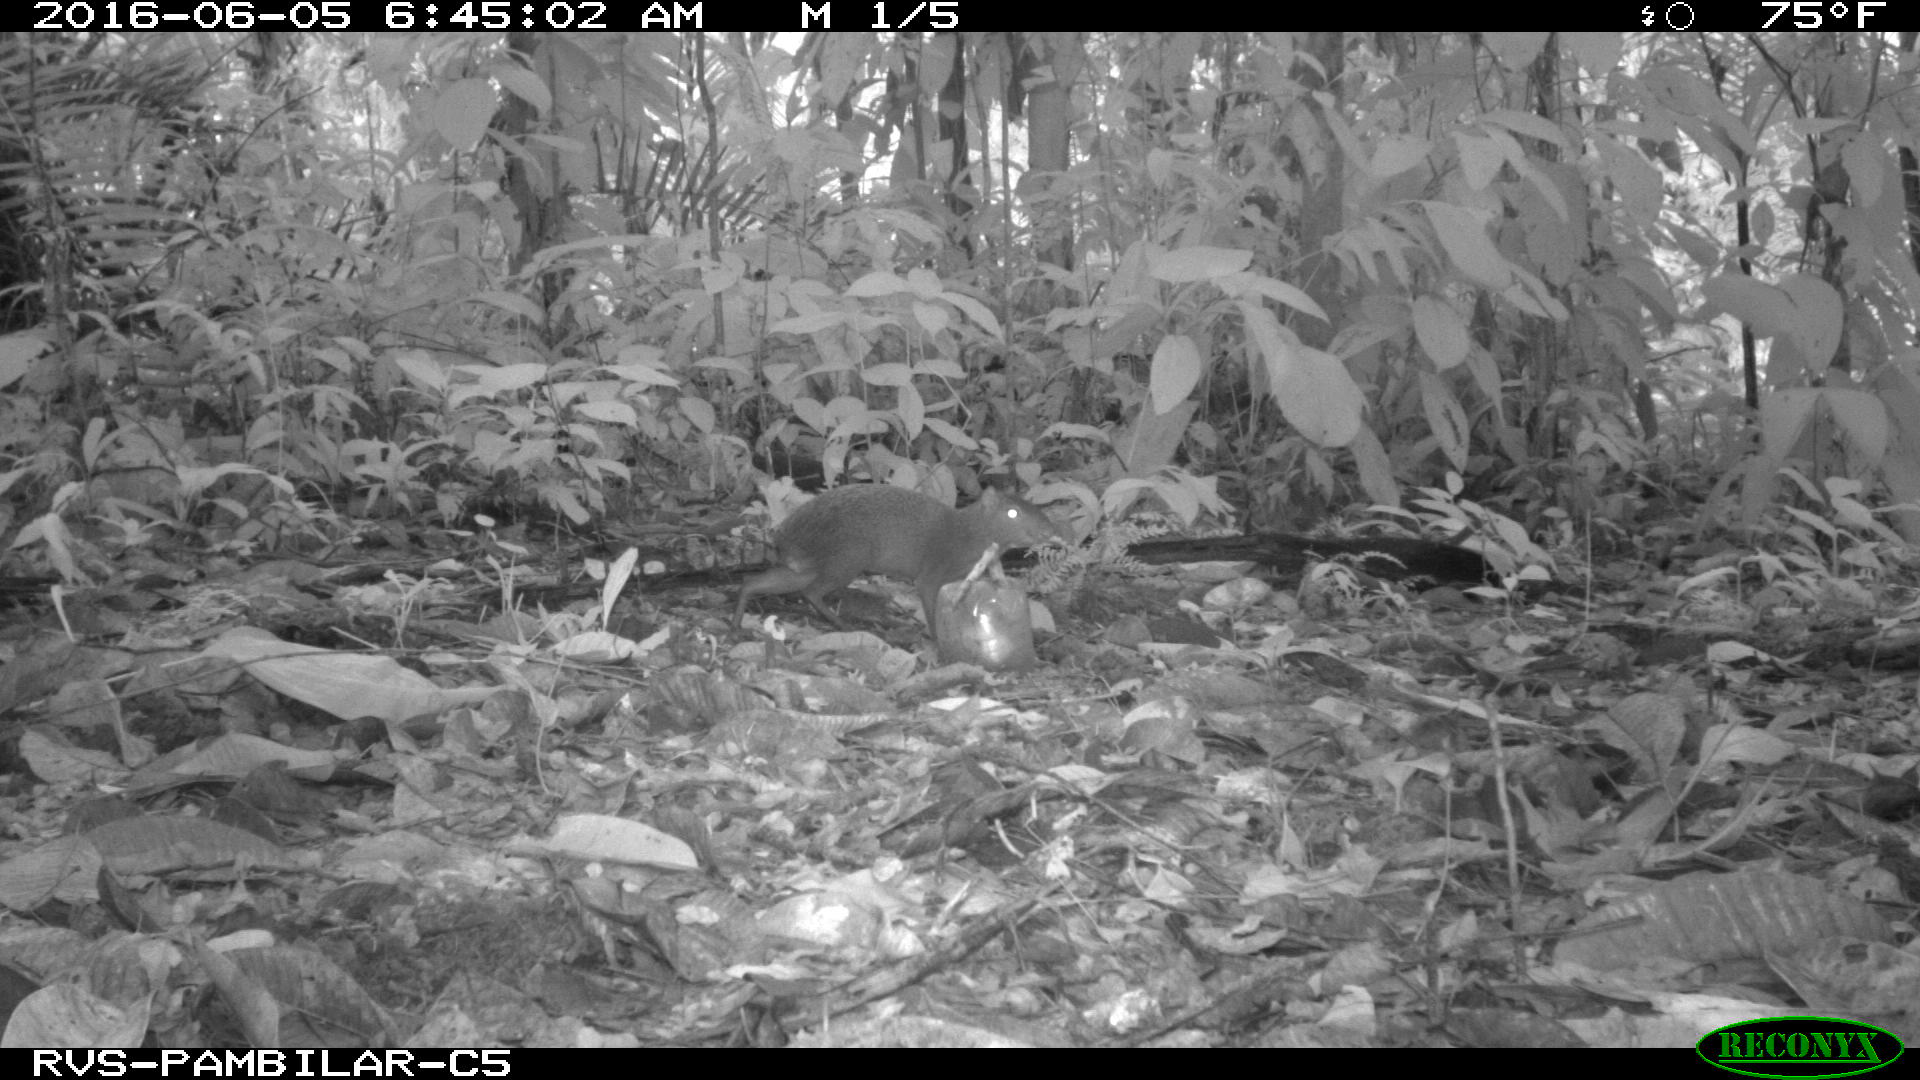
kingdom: Animalia
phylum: Chordata
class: Mammalia
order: Rodentia
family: Dasyproctidae
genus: Dasyprocta
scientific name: Dasyprocta punctata
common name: Central american agouti
